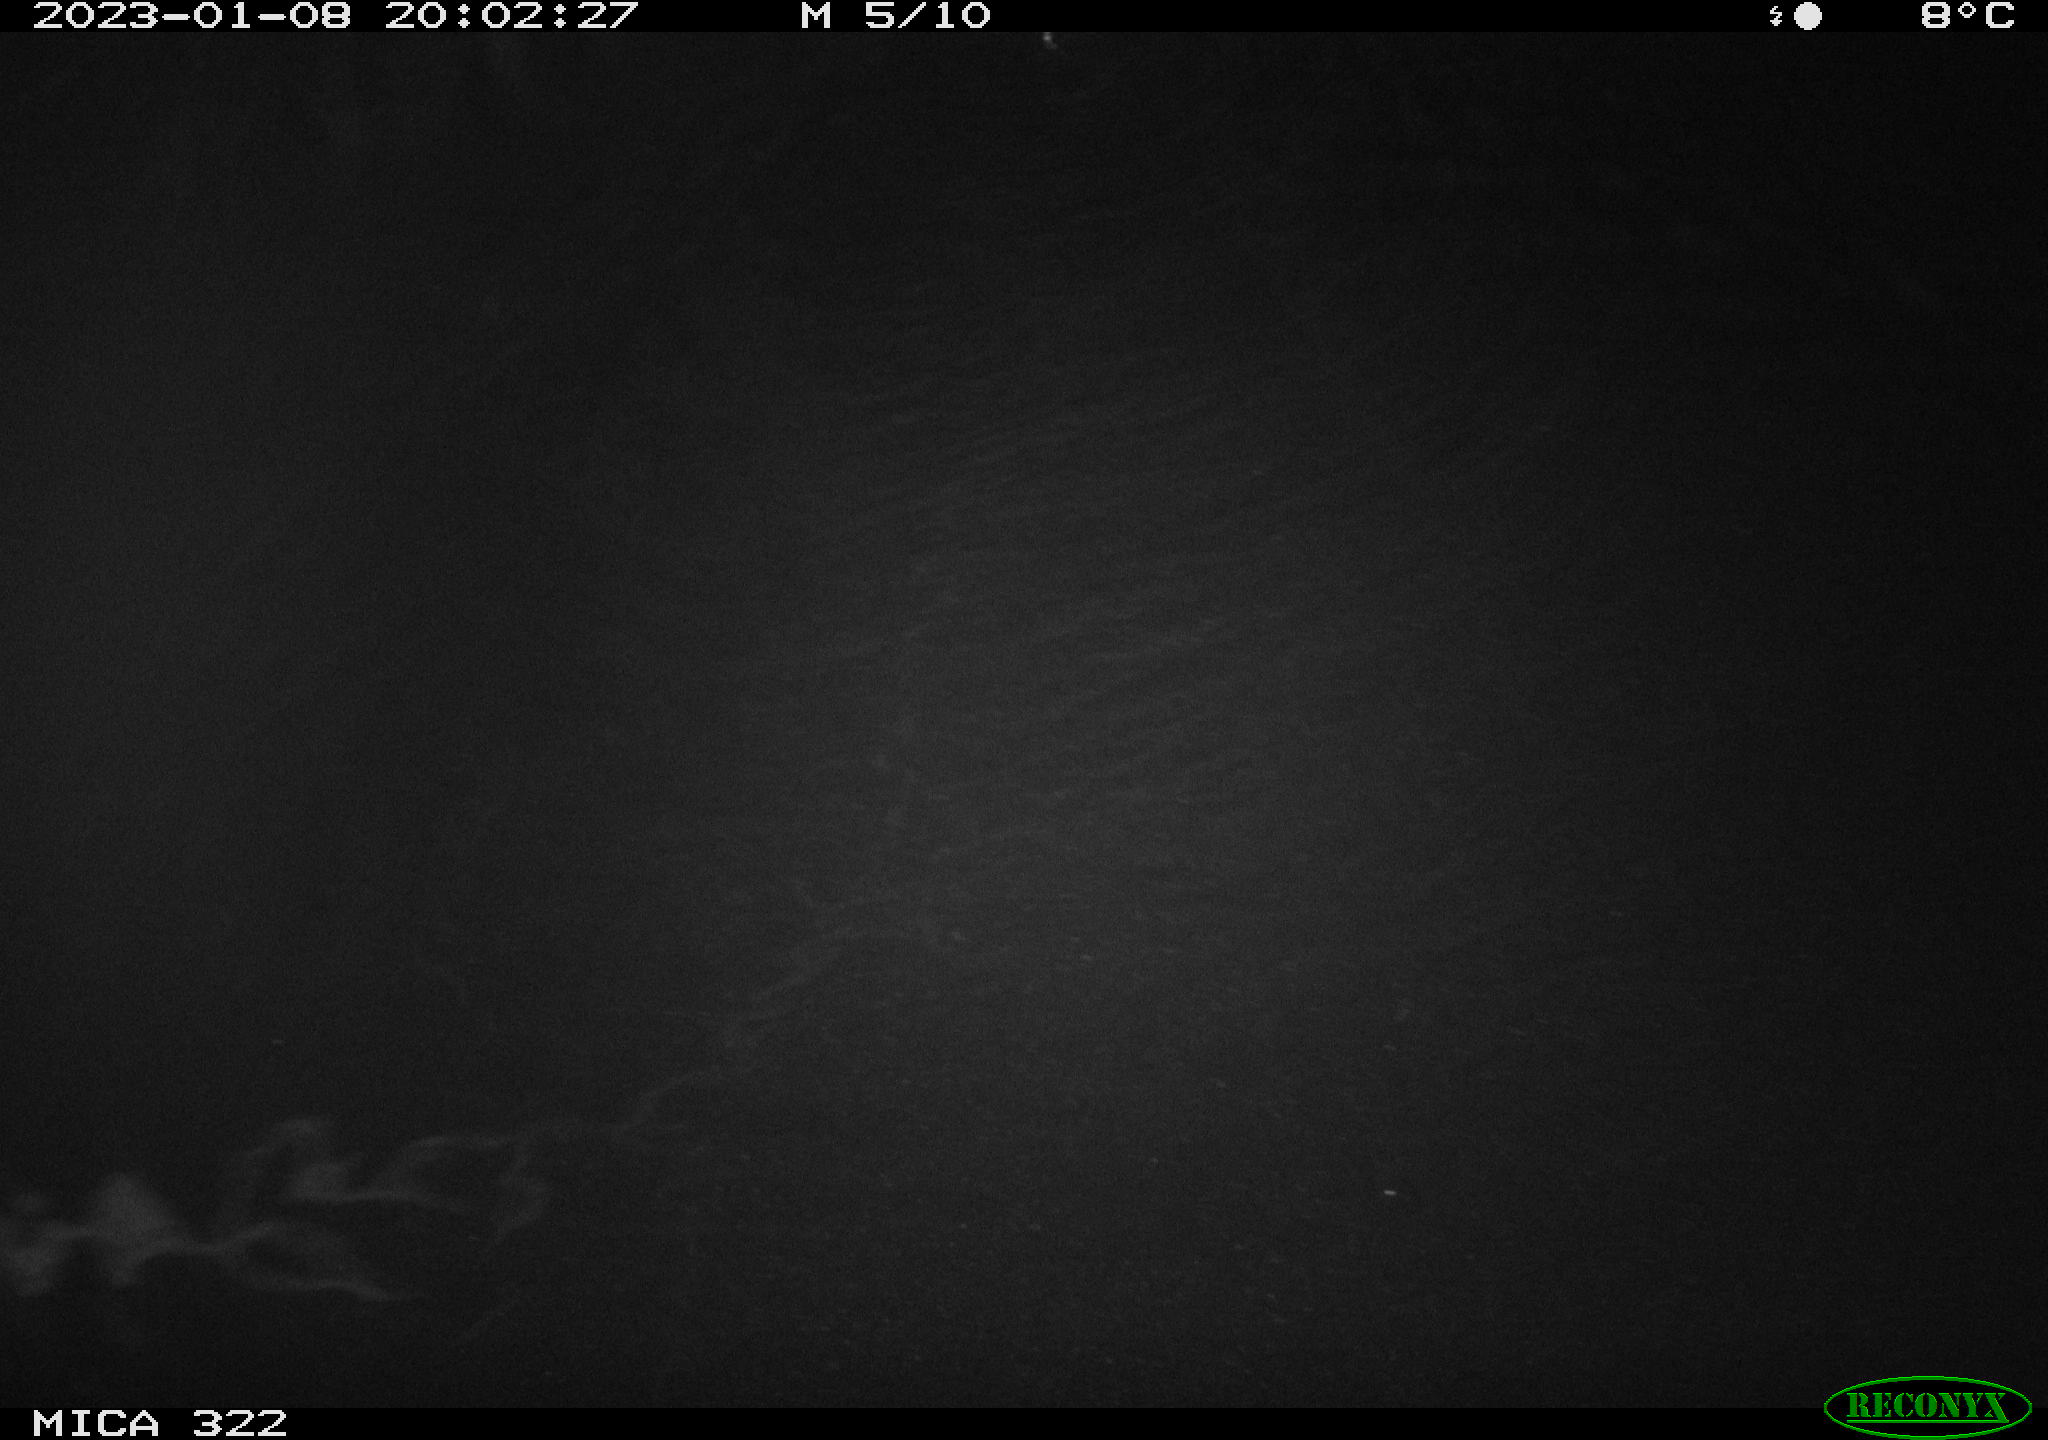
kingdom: Animalia
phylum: Chordata
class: Mammalia
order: Rodentia
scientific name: Rodentia
